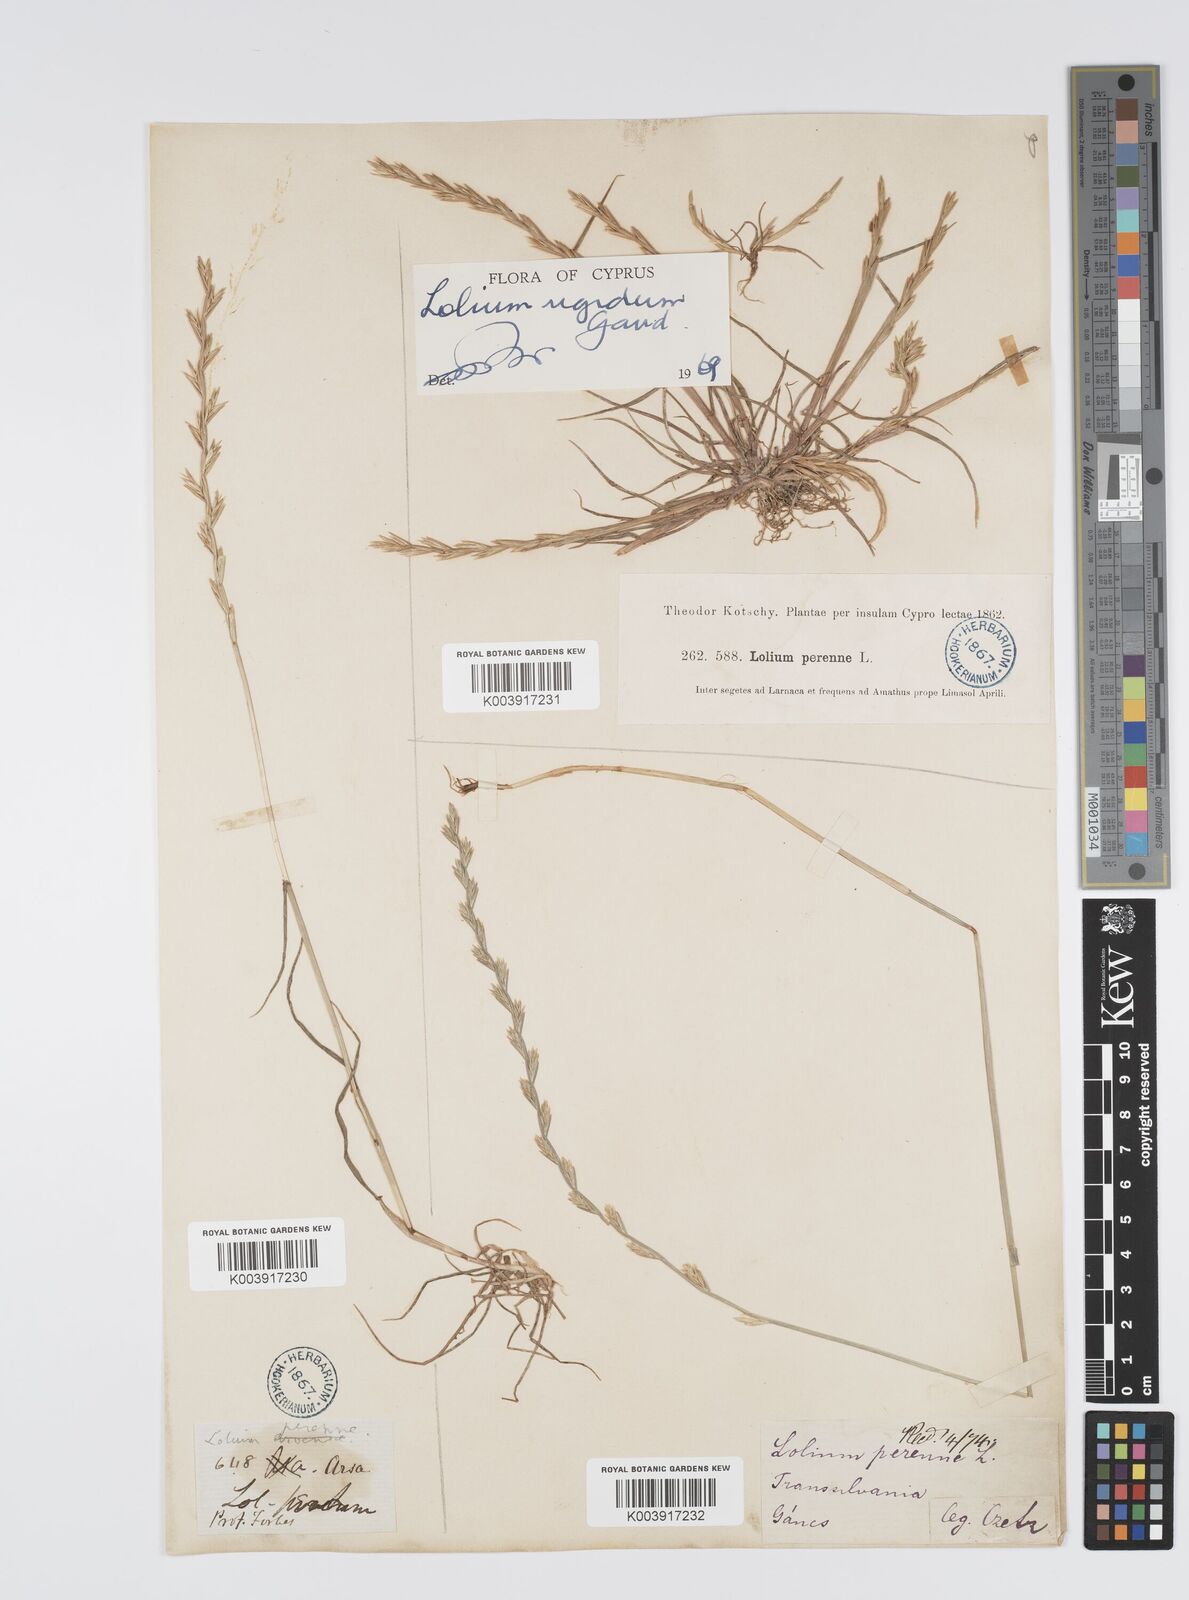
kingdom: Plantae
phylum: Tracheophyta
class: Liliopsida
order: Poales
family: Poaceae
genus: Lolium
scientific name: Lolium rigidum
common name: Wimmera ryegrass
